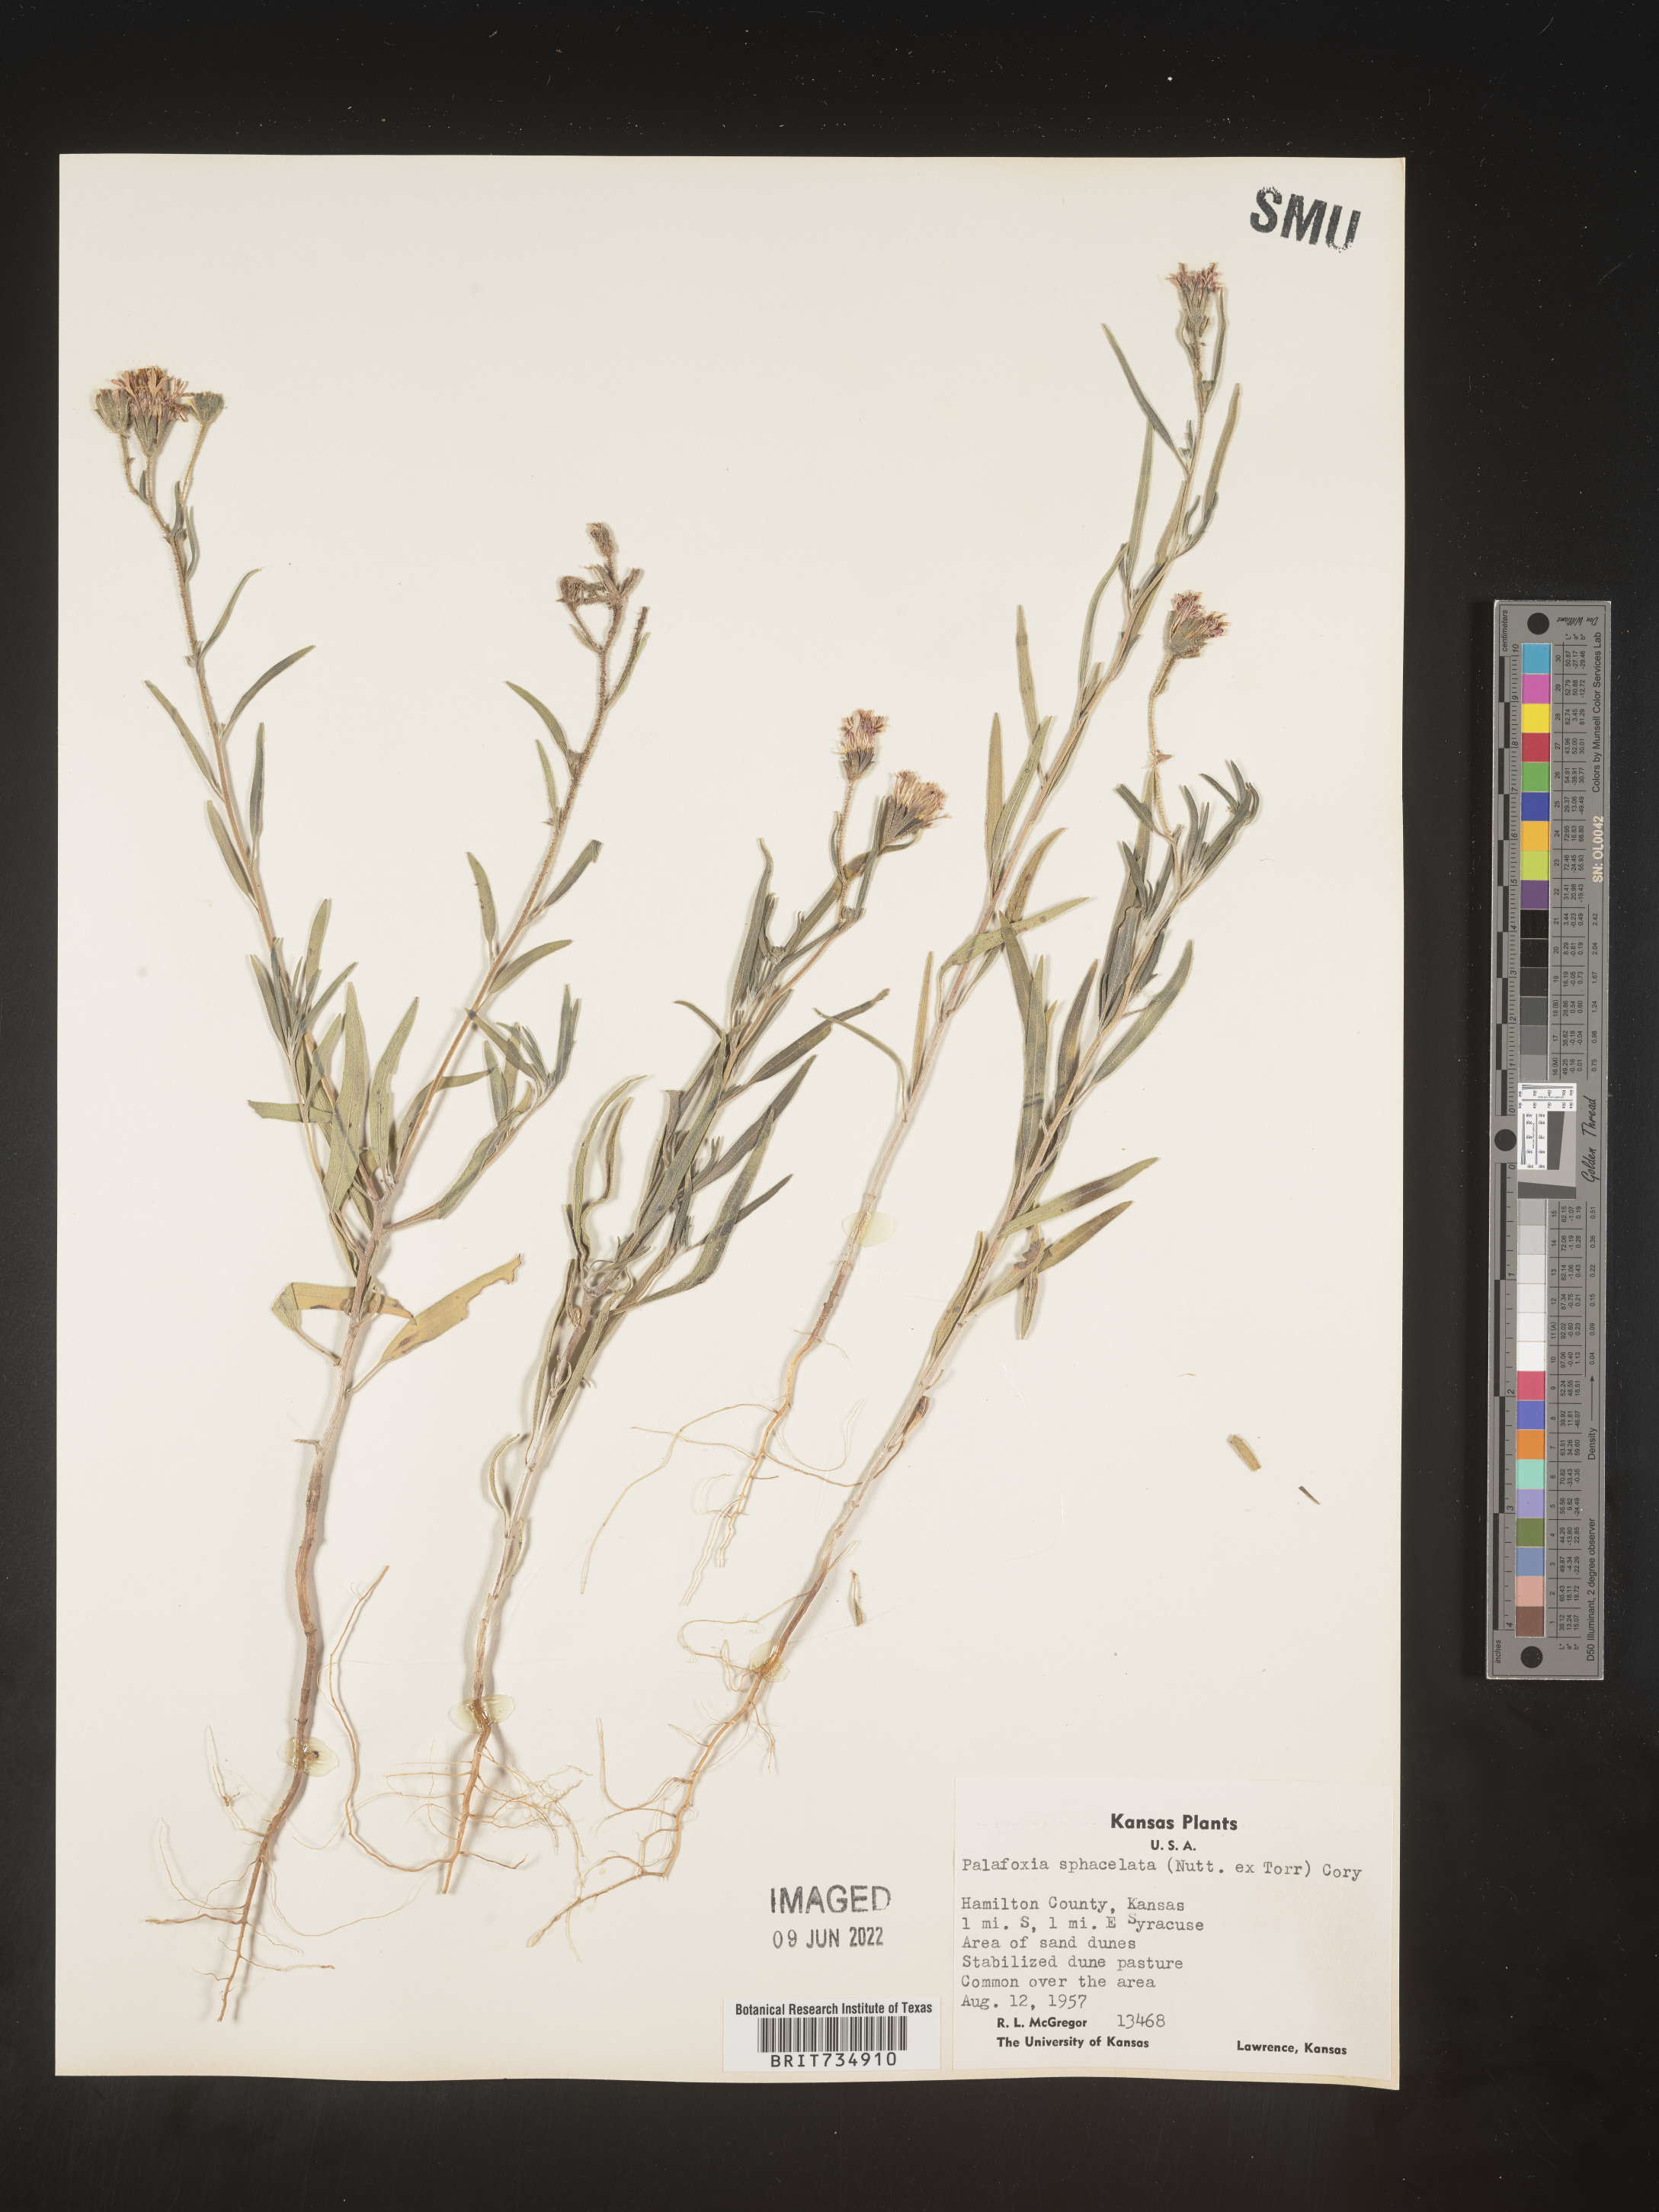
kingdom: Plantae
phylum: Tracheophyta
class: Magnoliopsida
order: Asterales
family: Asteraceae
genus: Palafoxia
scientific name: Palafoxia sphacelata
